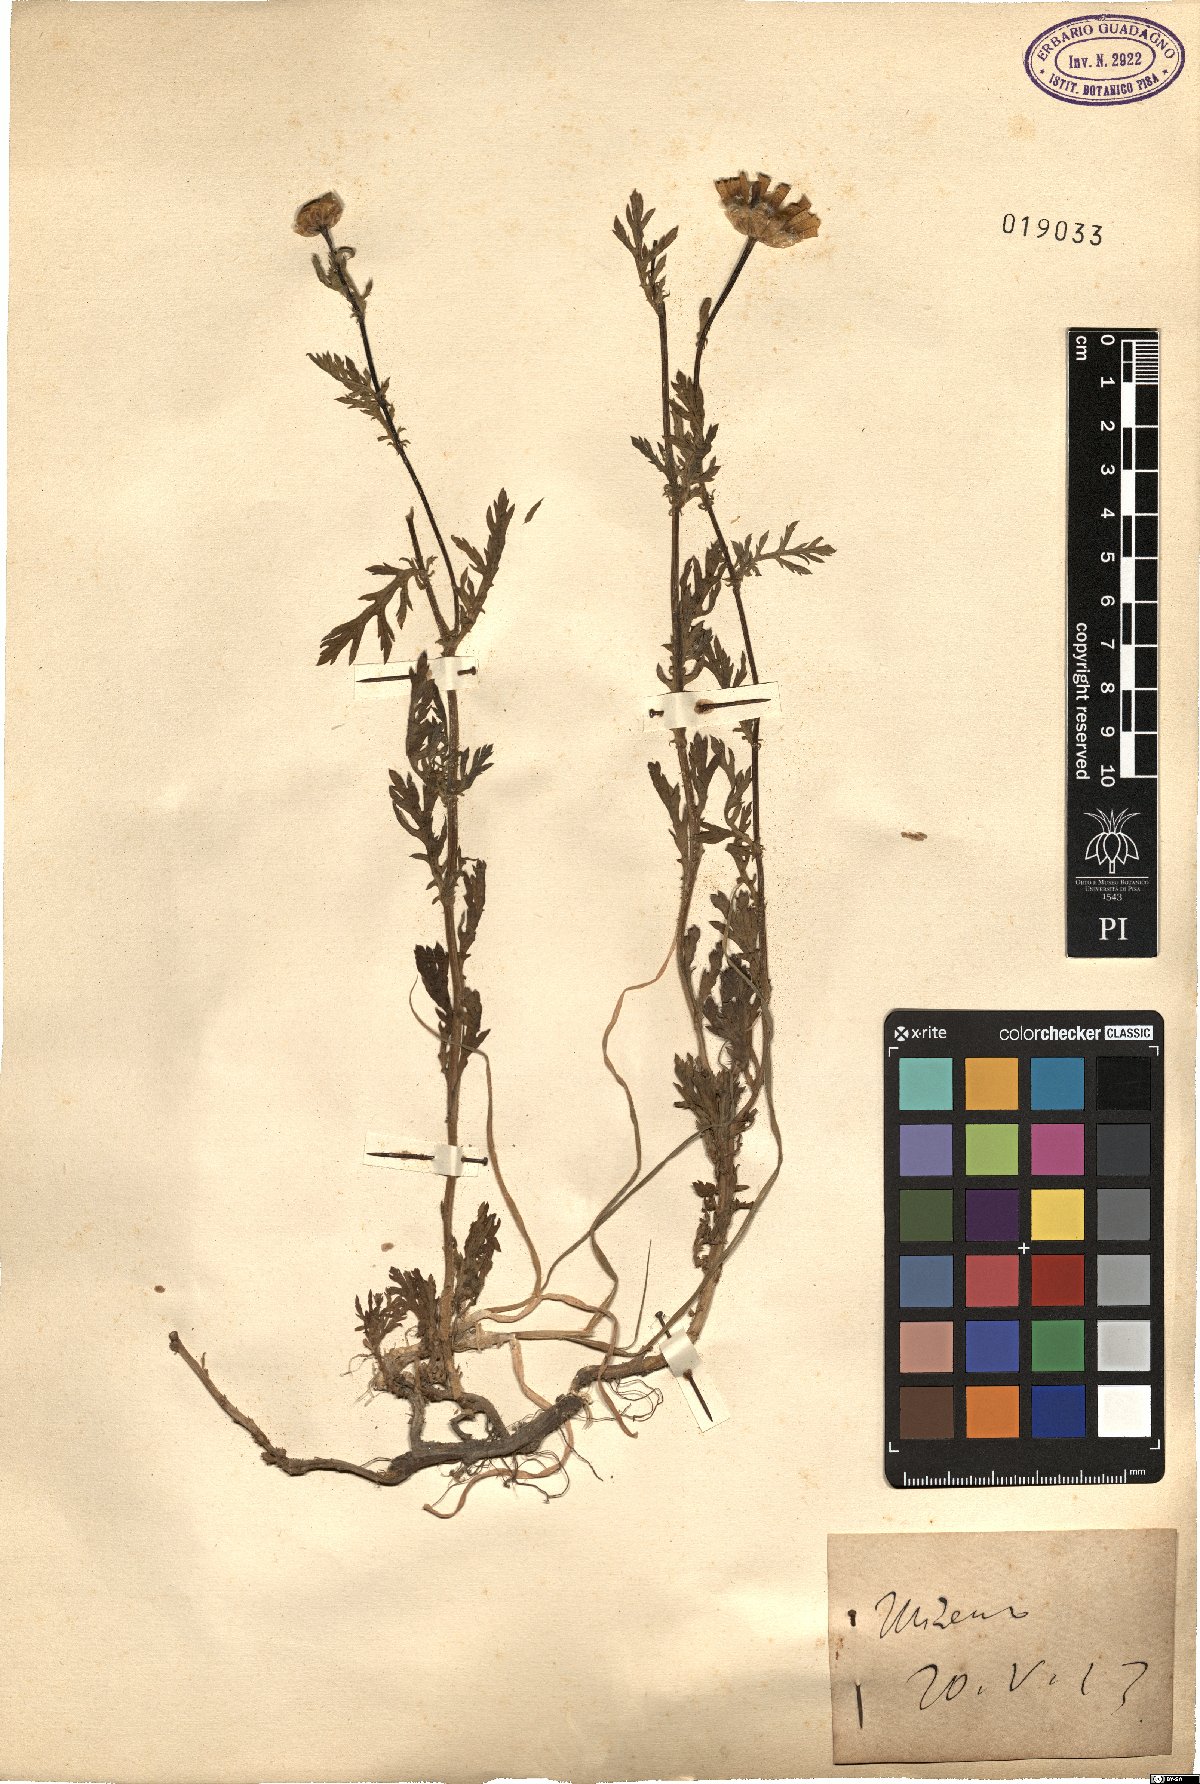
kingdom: Plantae
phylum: Tracheophyta
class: Magnoliopsida
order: Asterales
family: Asteraceae
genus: Pyrethrum
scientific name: Pyrethrum
